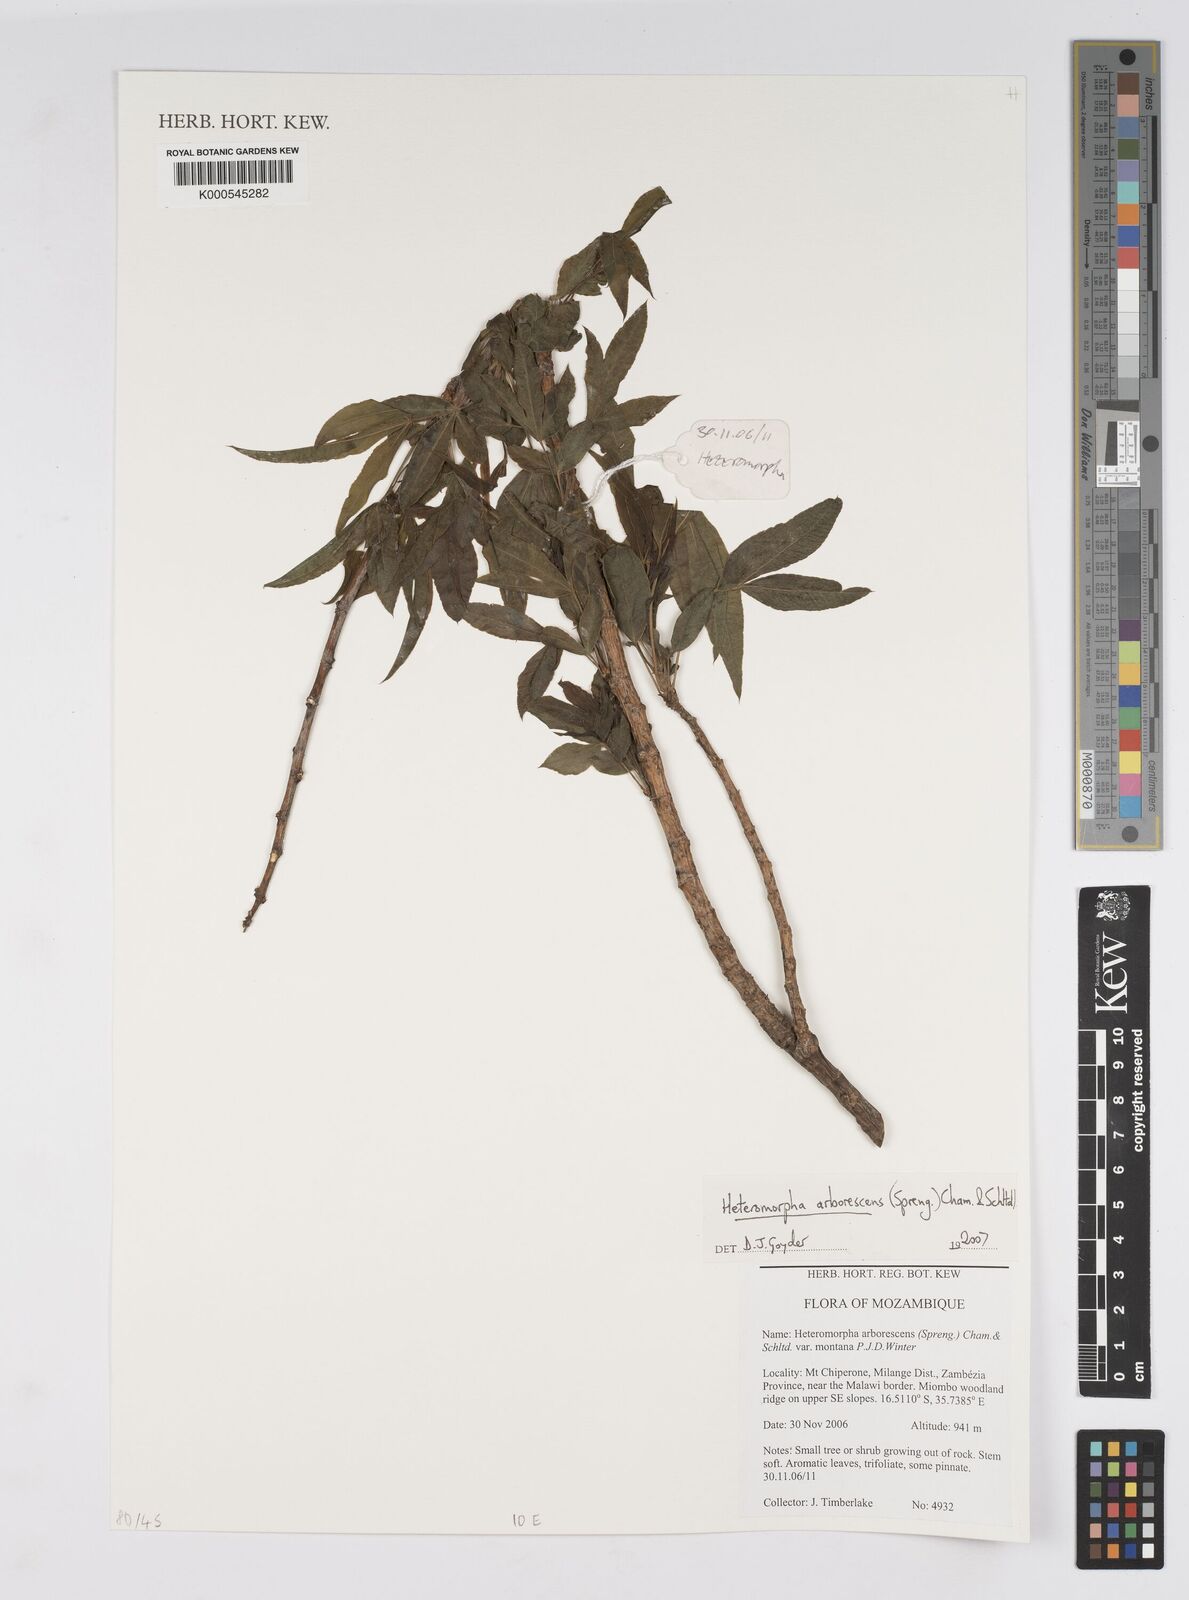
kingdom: Plantae
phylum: Tracheophyta
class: Magnoliopsida
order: Apiales
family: Apiaceae
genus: Heteromorpha
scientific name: Heteromorpha montana
